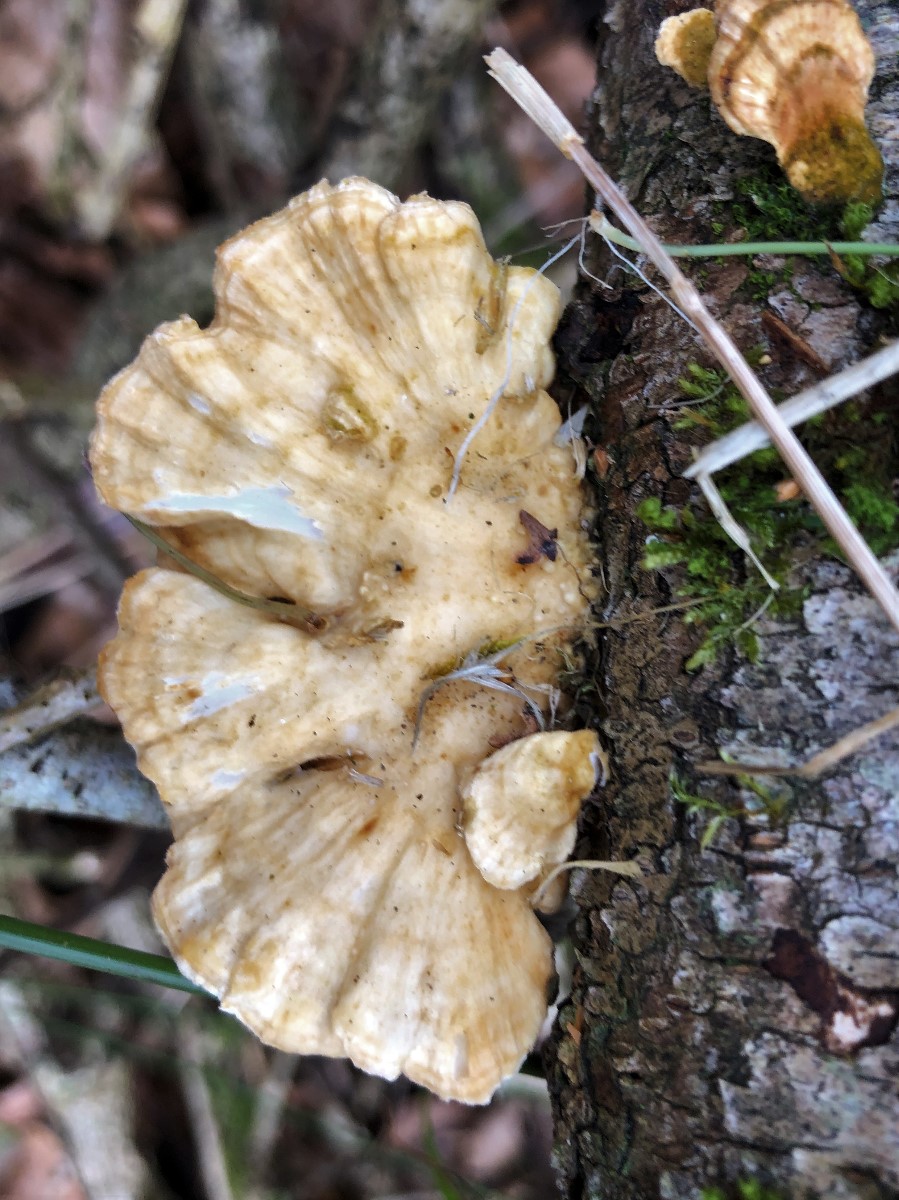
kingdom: Fungi
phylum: Basidiomycota
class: Agaricomycetes
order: Polyporales
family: Polyporaceae
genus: Trametes
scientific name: Trametes
